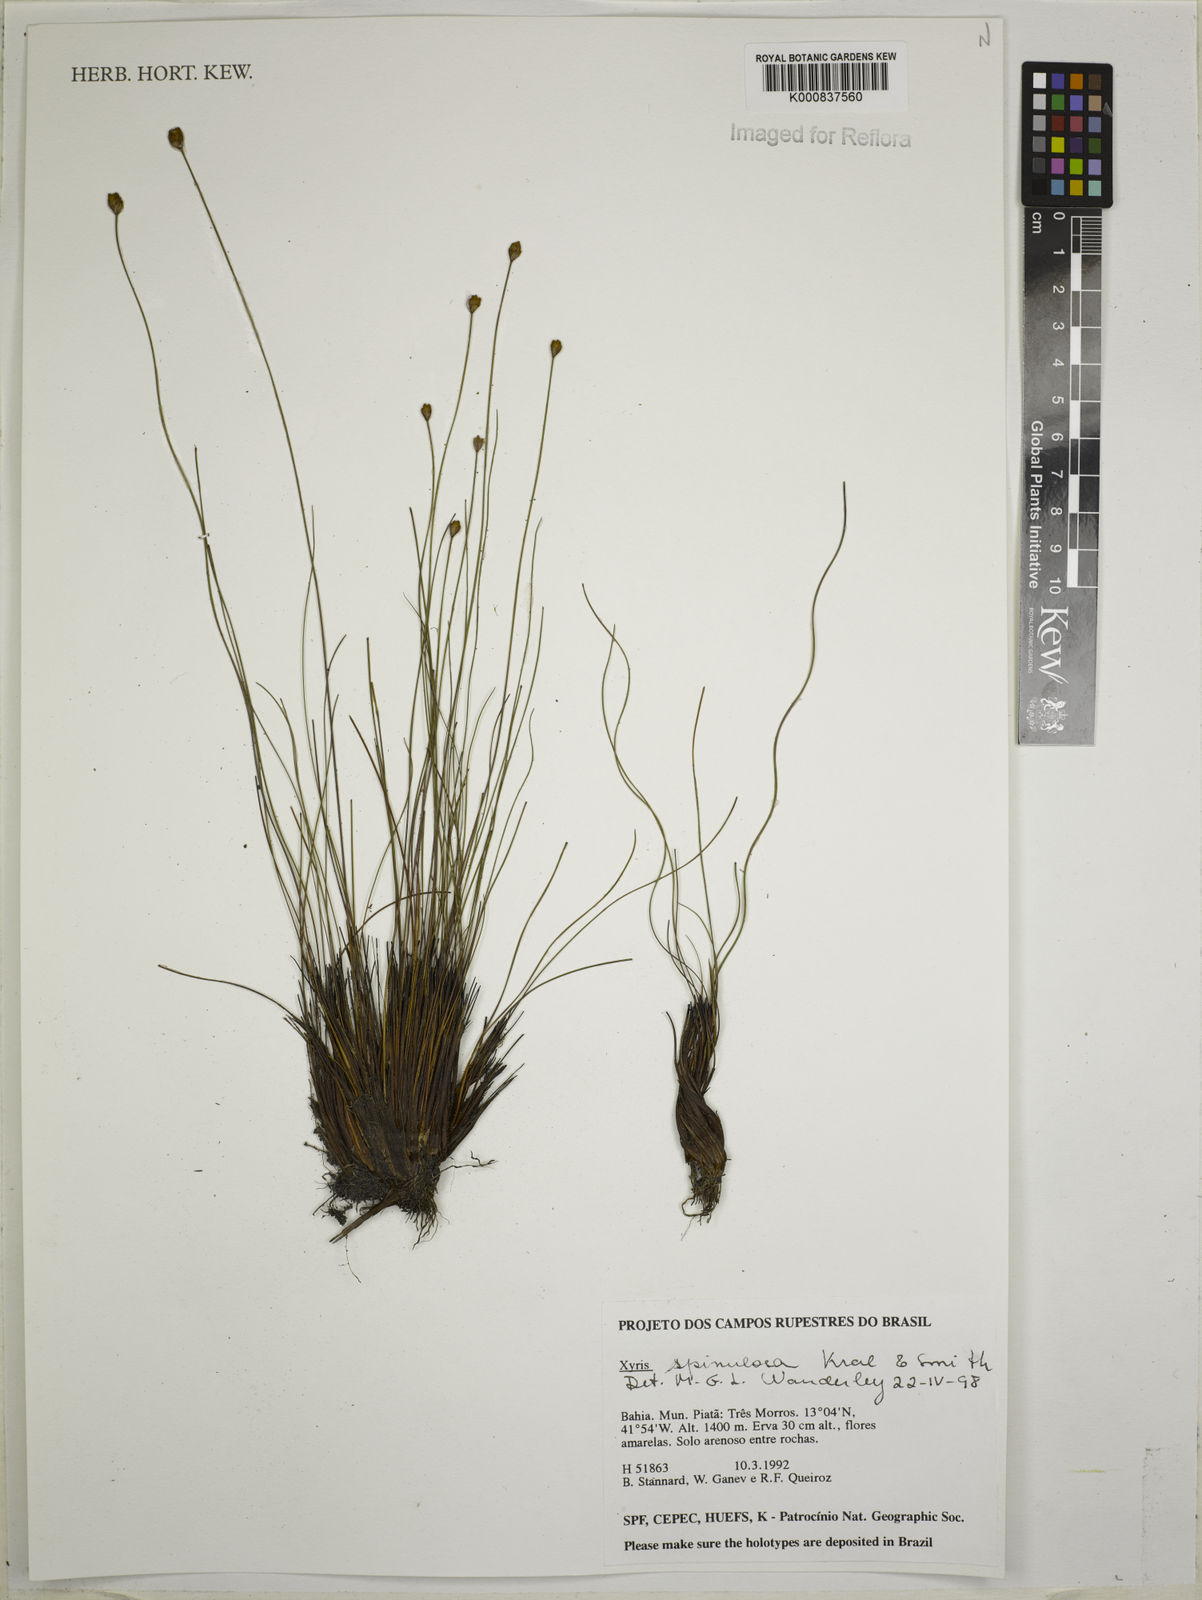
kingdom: Plantae
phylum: Tracheophyta
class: Liliopsida
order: Poales
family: Xyridaceae
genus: Xyris
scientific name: Xyris spinulosa
